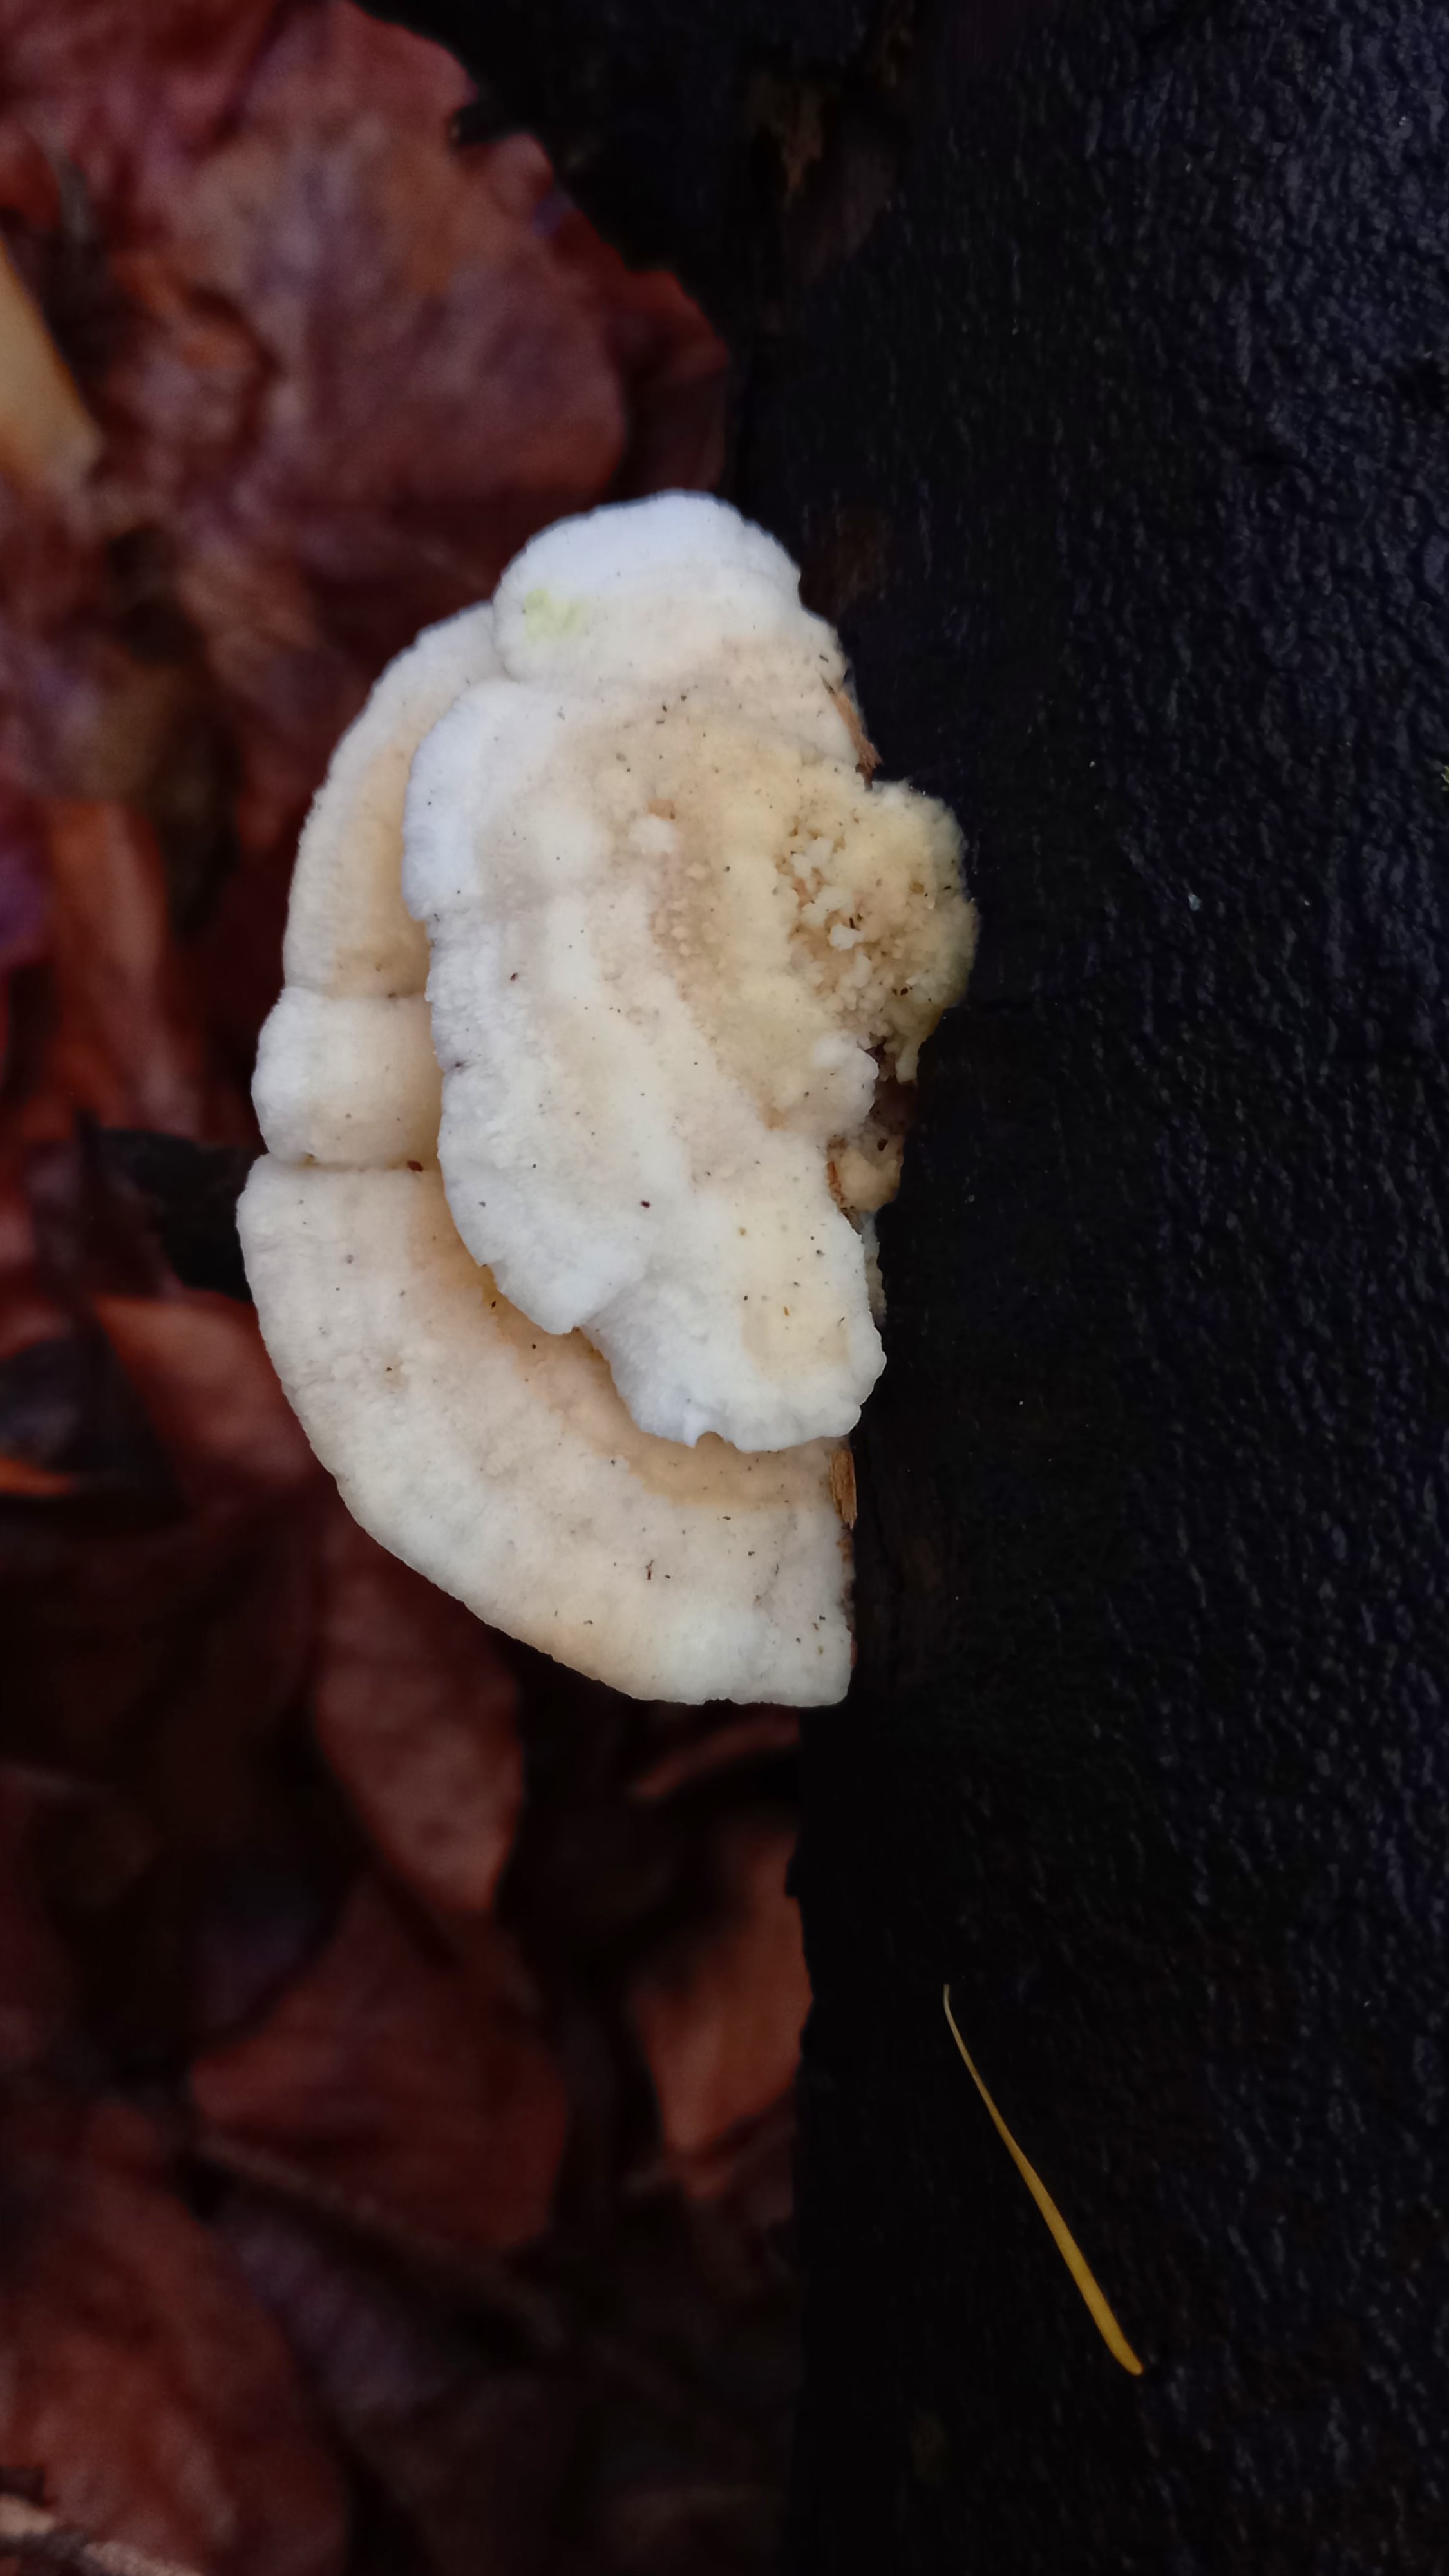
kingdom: Fungi
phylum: Basidiomycota
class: Agaricomycetes
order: Polyporales
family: Incrustoporiaceae
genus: Tyromyces
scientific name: Tyromyces lacteus
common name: mælkehvid kødporesvamp
